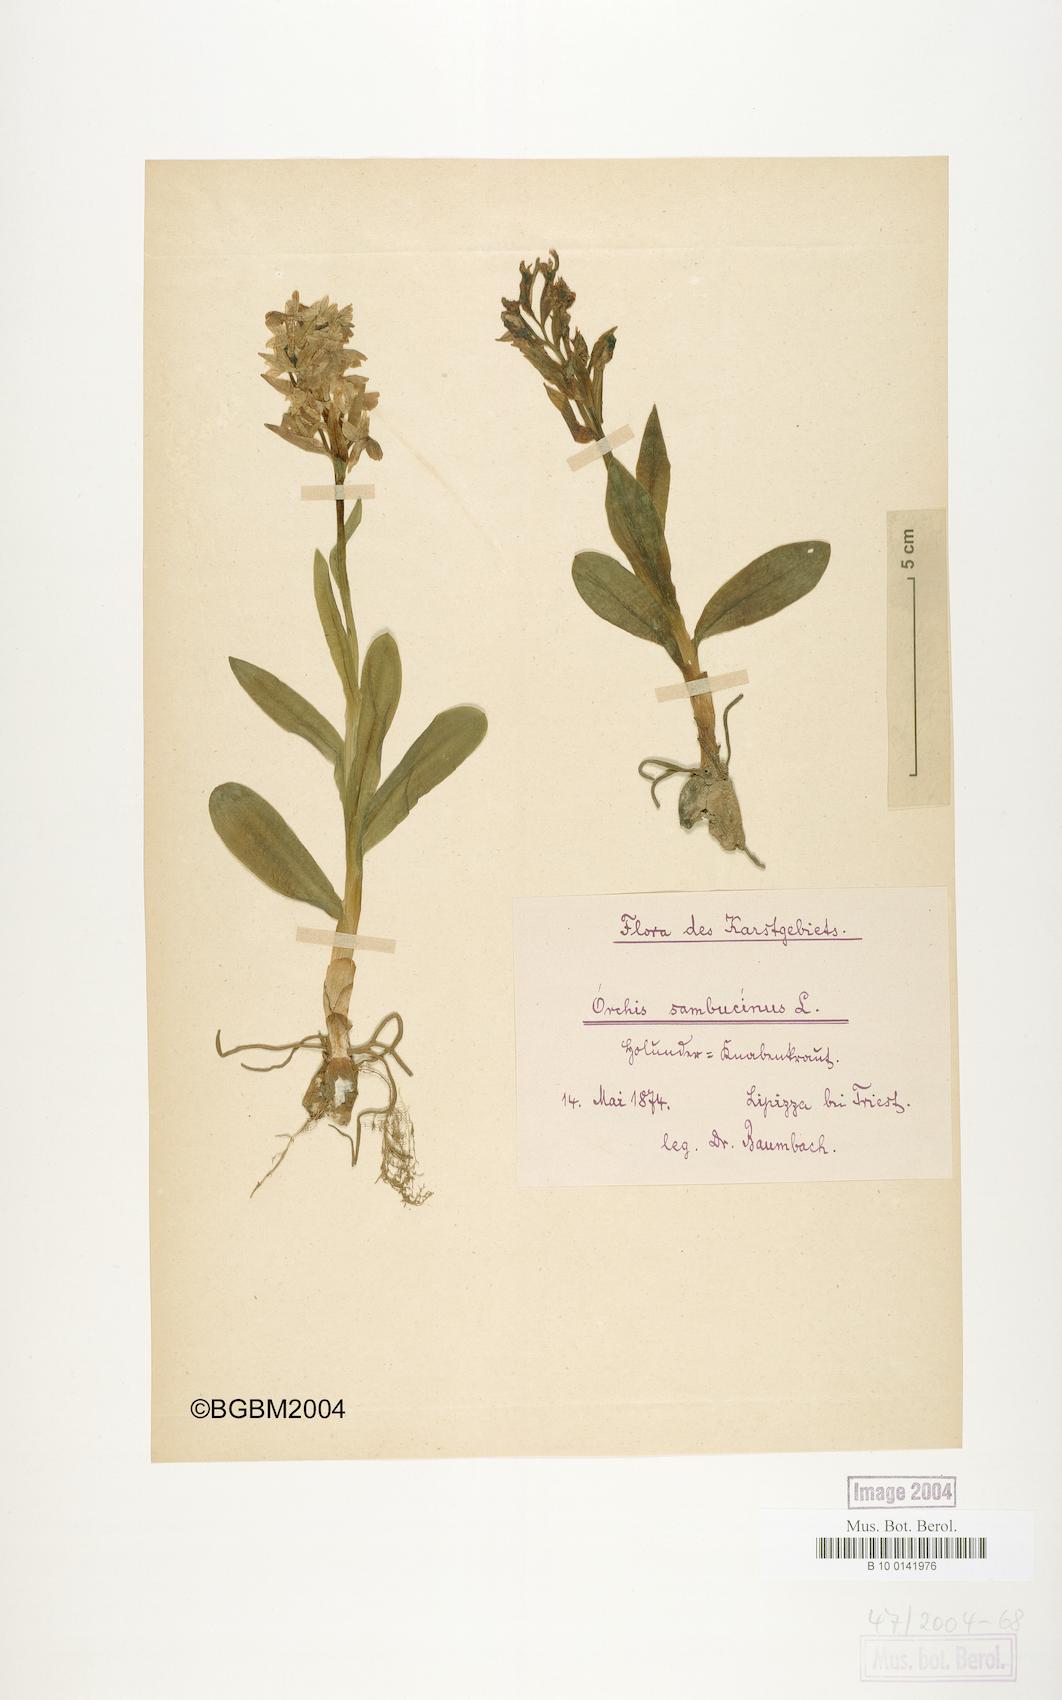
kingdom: Plantae
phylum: Tracheophyta
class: Liliopsida
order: Asparagales
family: Orchidaceae
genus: Dactylorhiza
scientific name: Dactylorhiza sambucina
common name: Elder-flowered orchid
